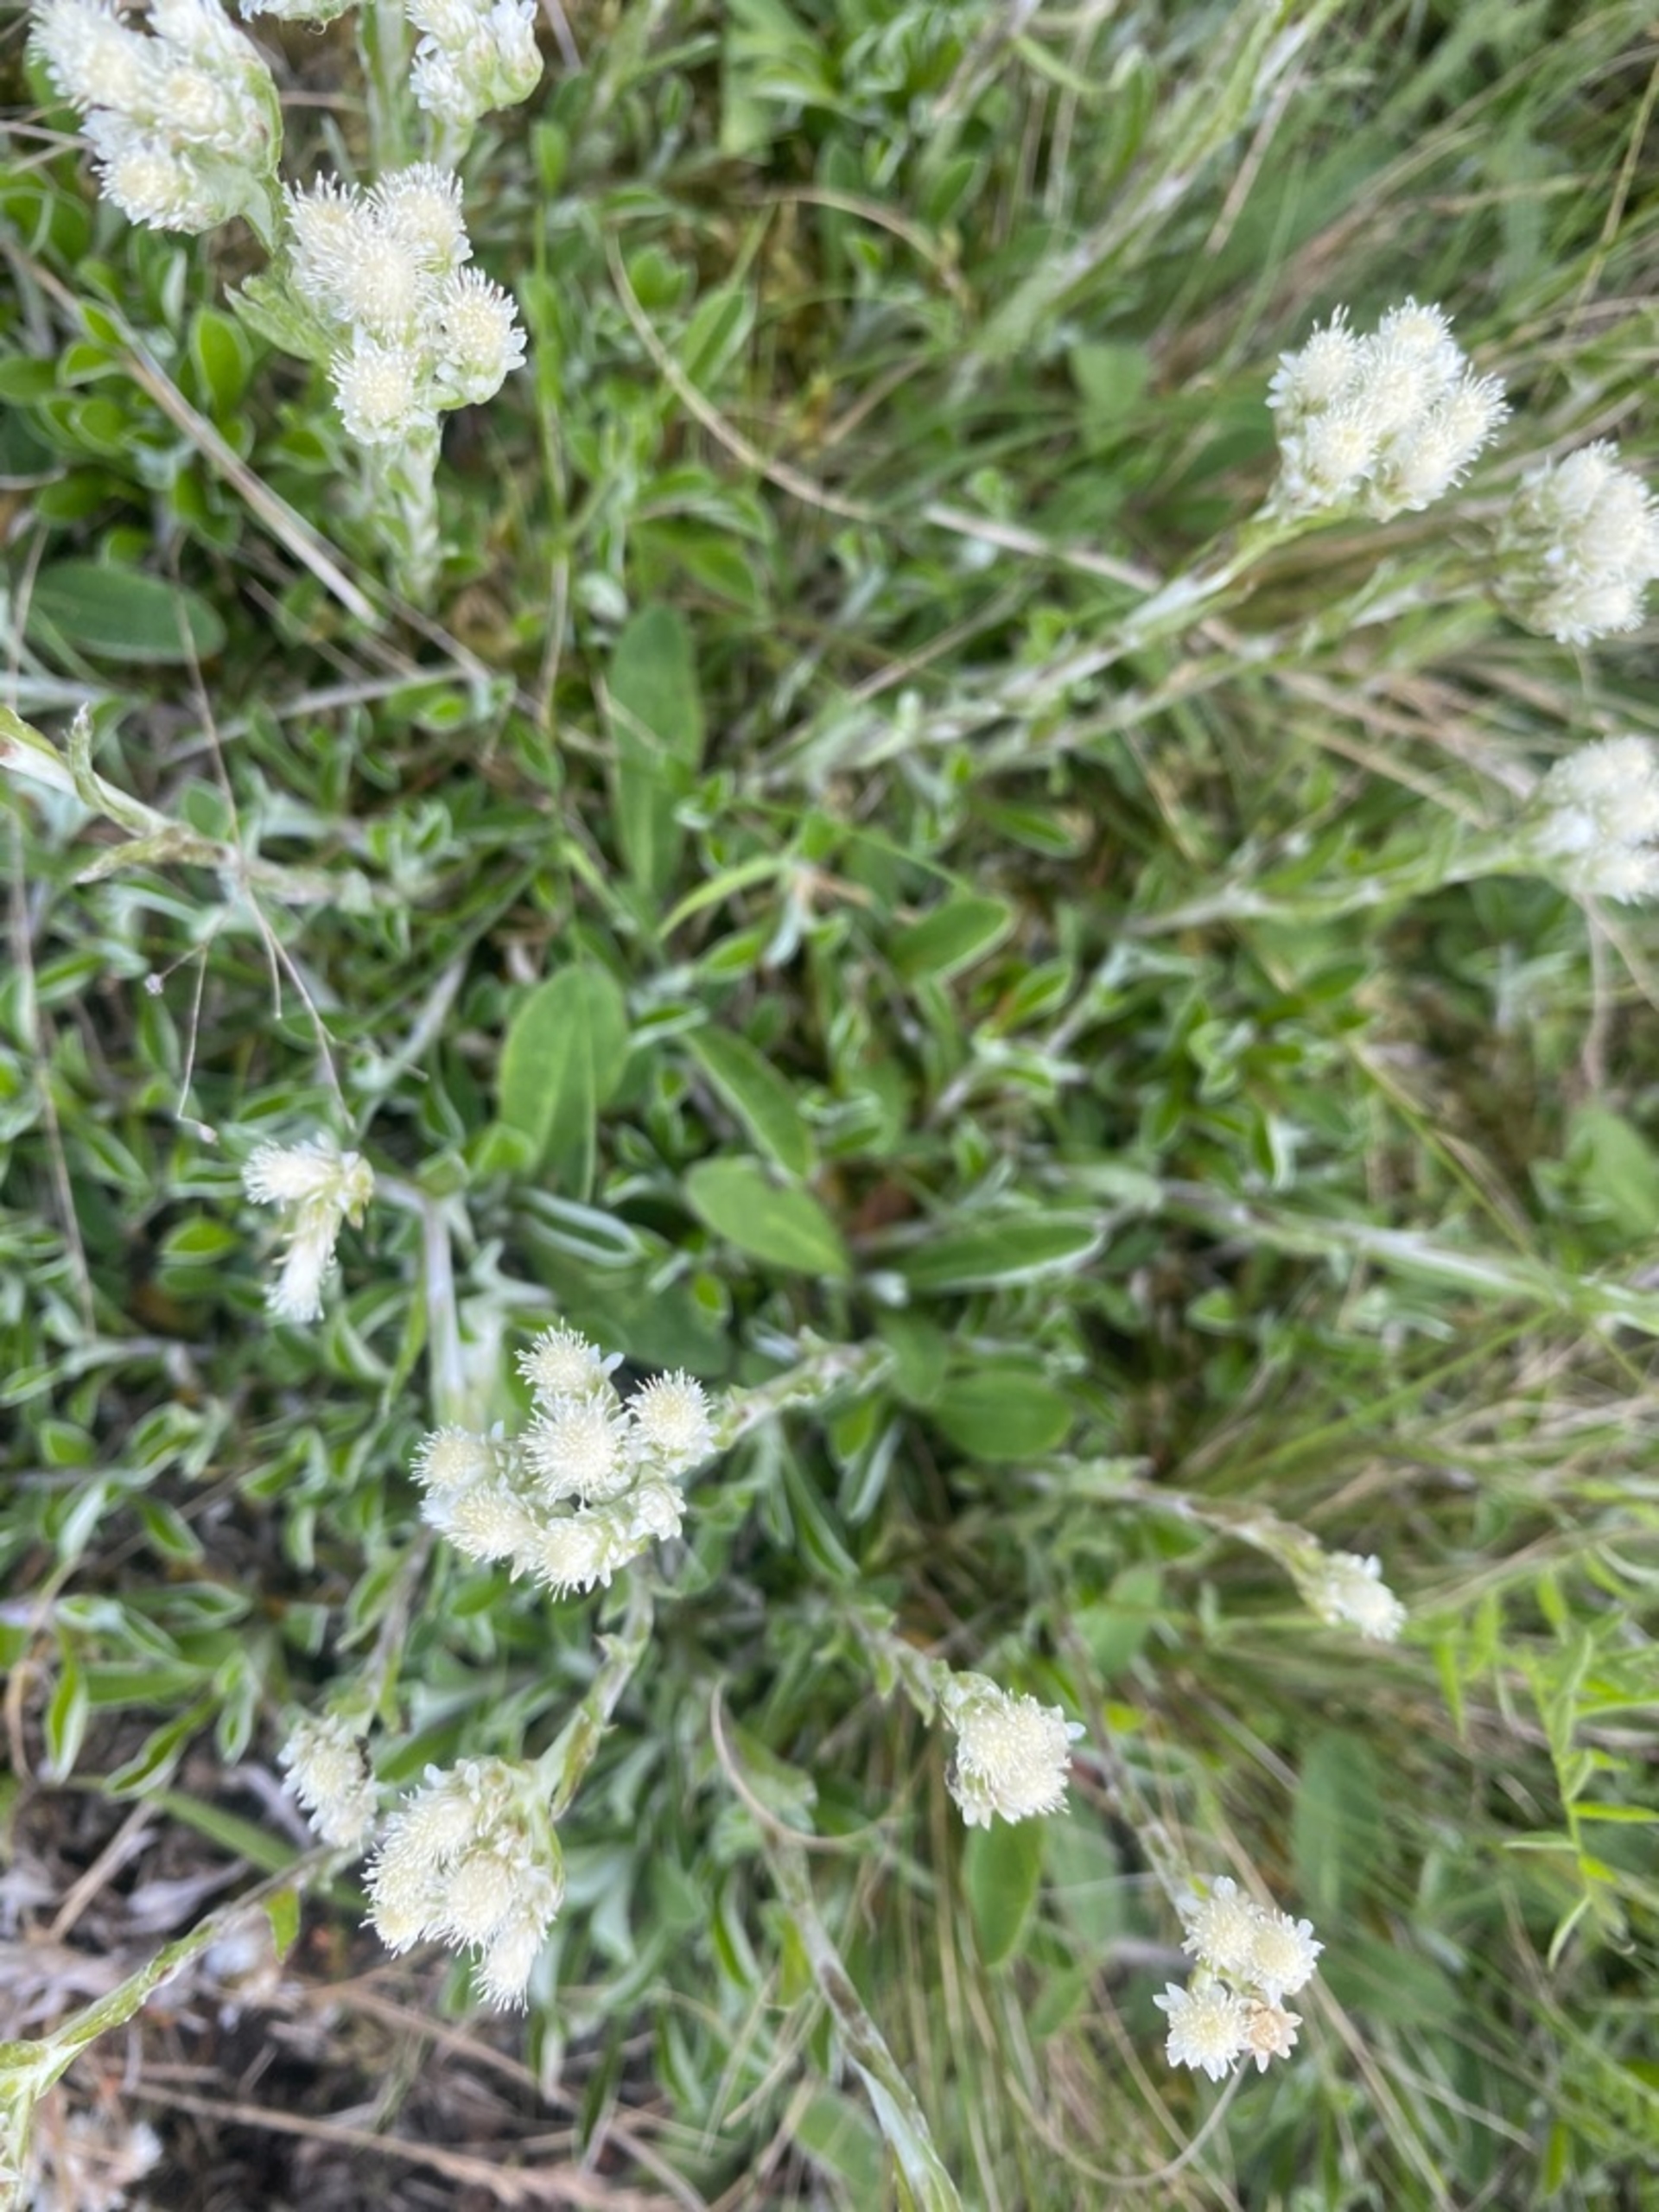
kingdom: Plantae
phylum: Tracheophyta
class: Magnoliopsida
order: Asterales
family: Asteraceae
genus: Antennaria
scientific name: Antennaria dioica
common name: Kattefod
